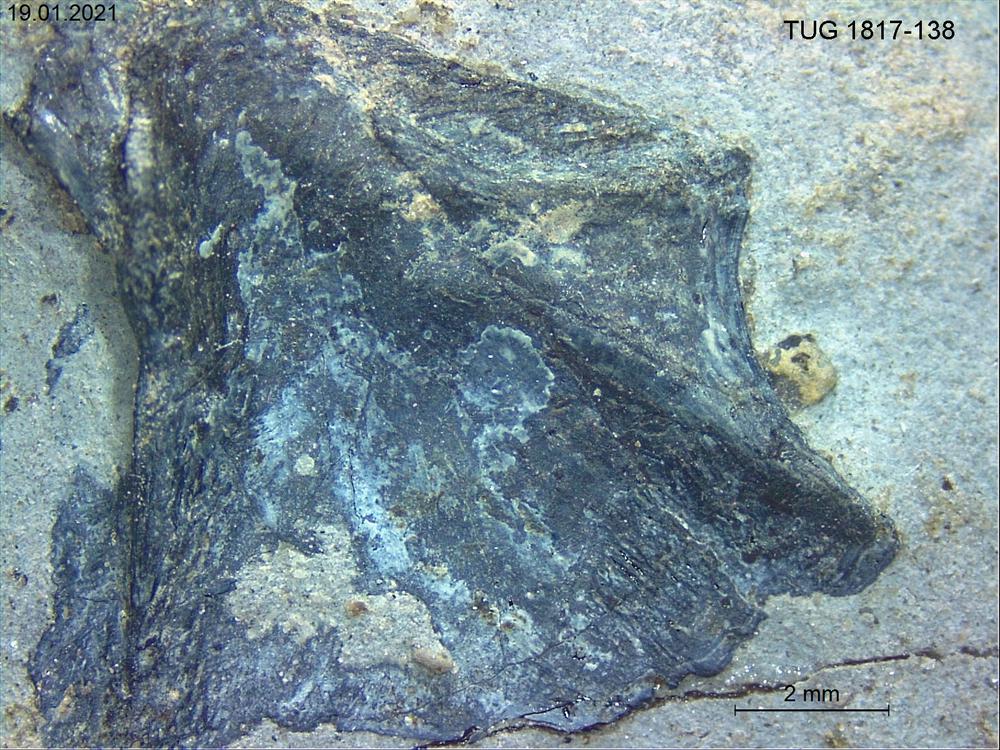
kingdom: Animalia
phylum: Chordata
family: Coccosteidae
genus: Millerosteus
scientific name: Millerosteus minor
